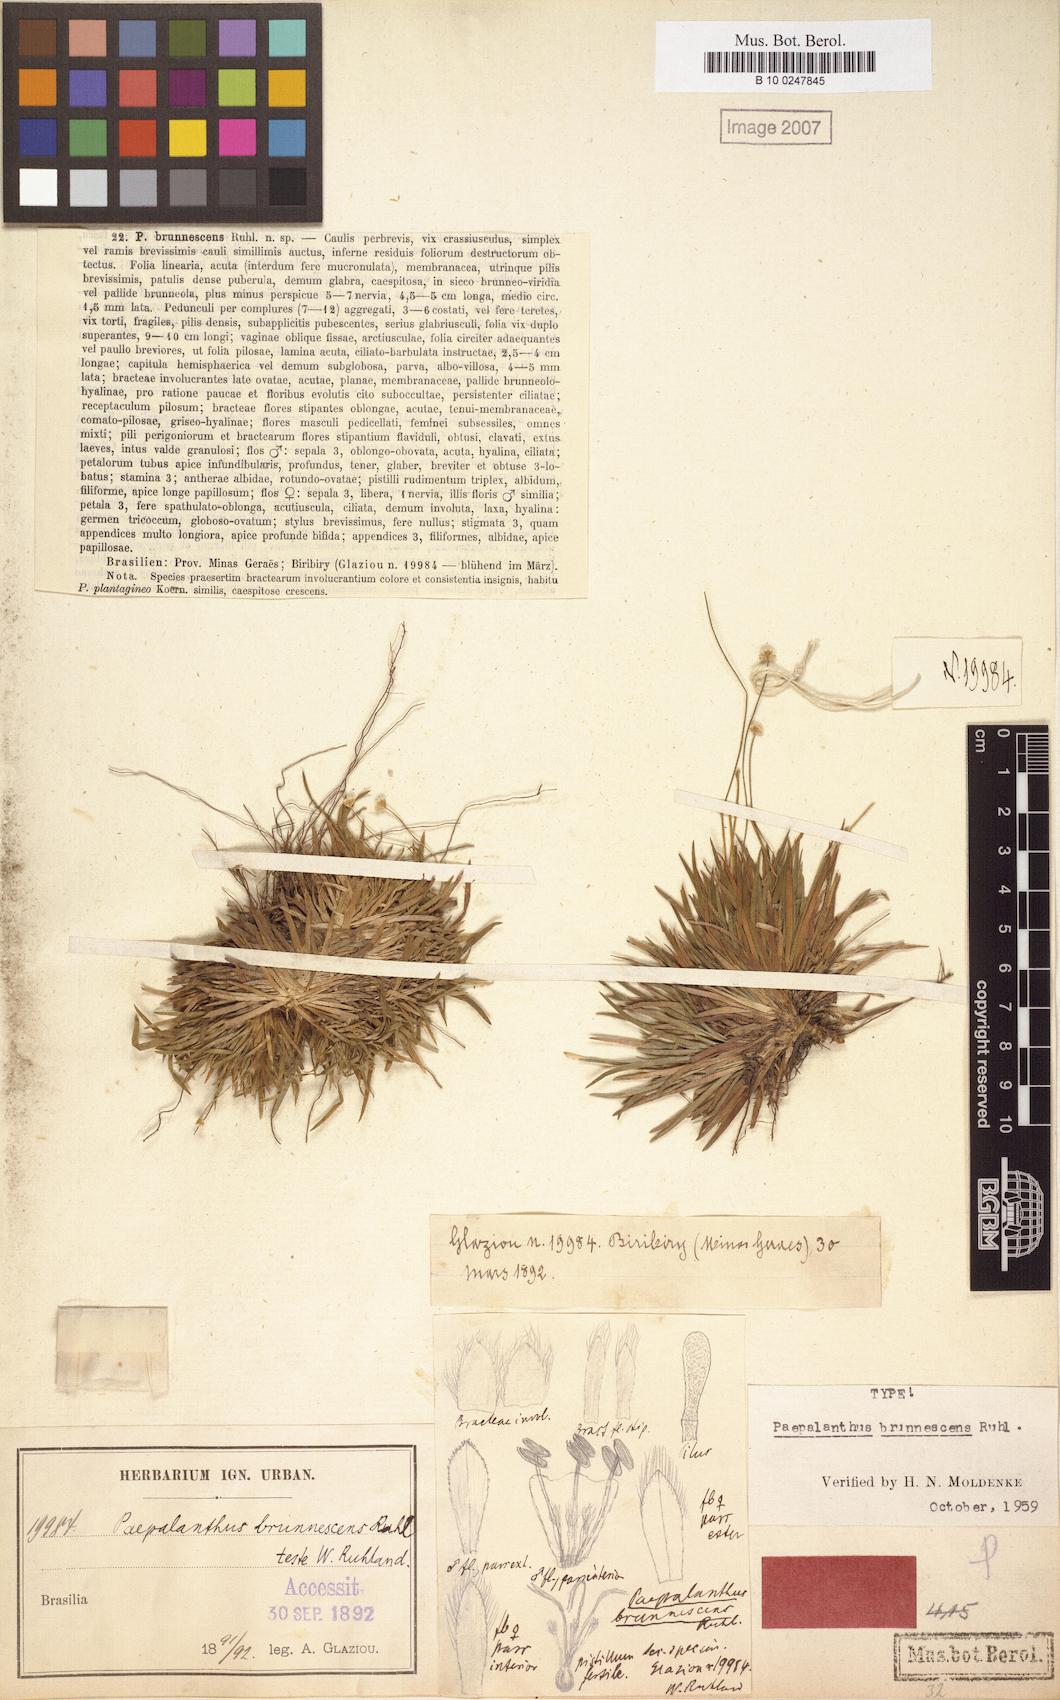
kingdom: Plantae
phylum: Tracheophyta
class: Liliopsida
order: Poales
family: Eriocaulaceae
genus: Paepalanthus
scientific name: Paepalanthus brunnescens
